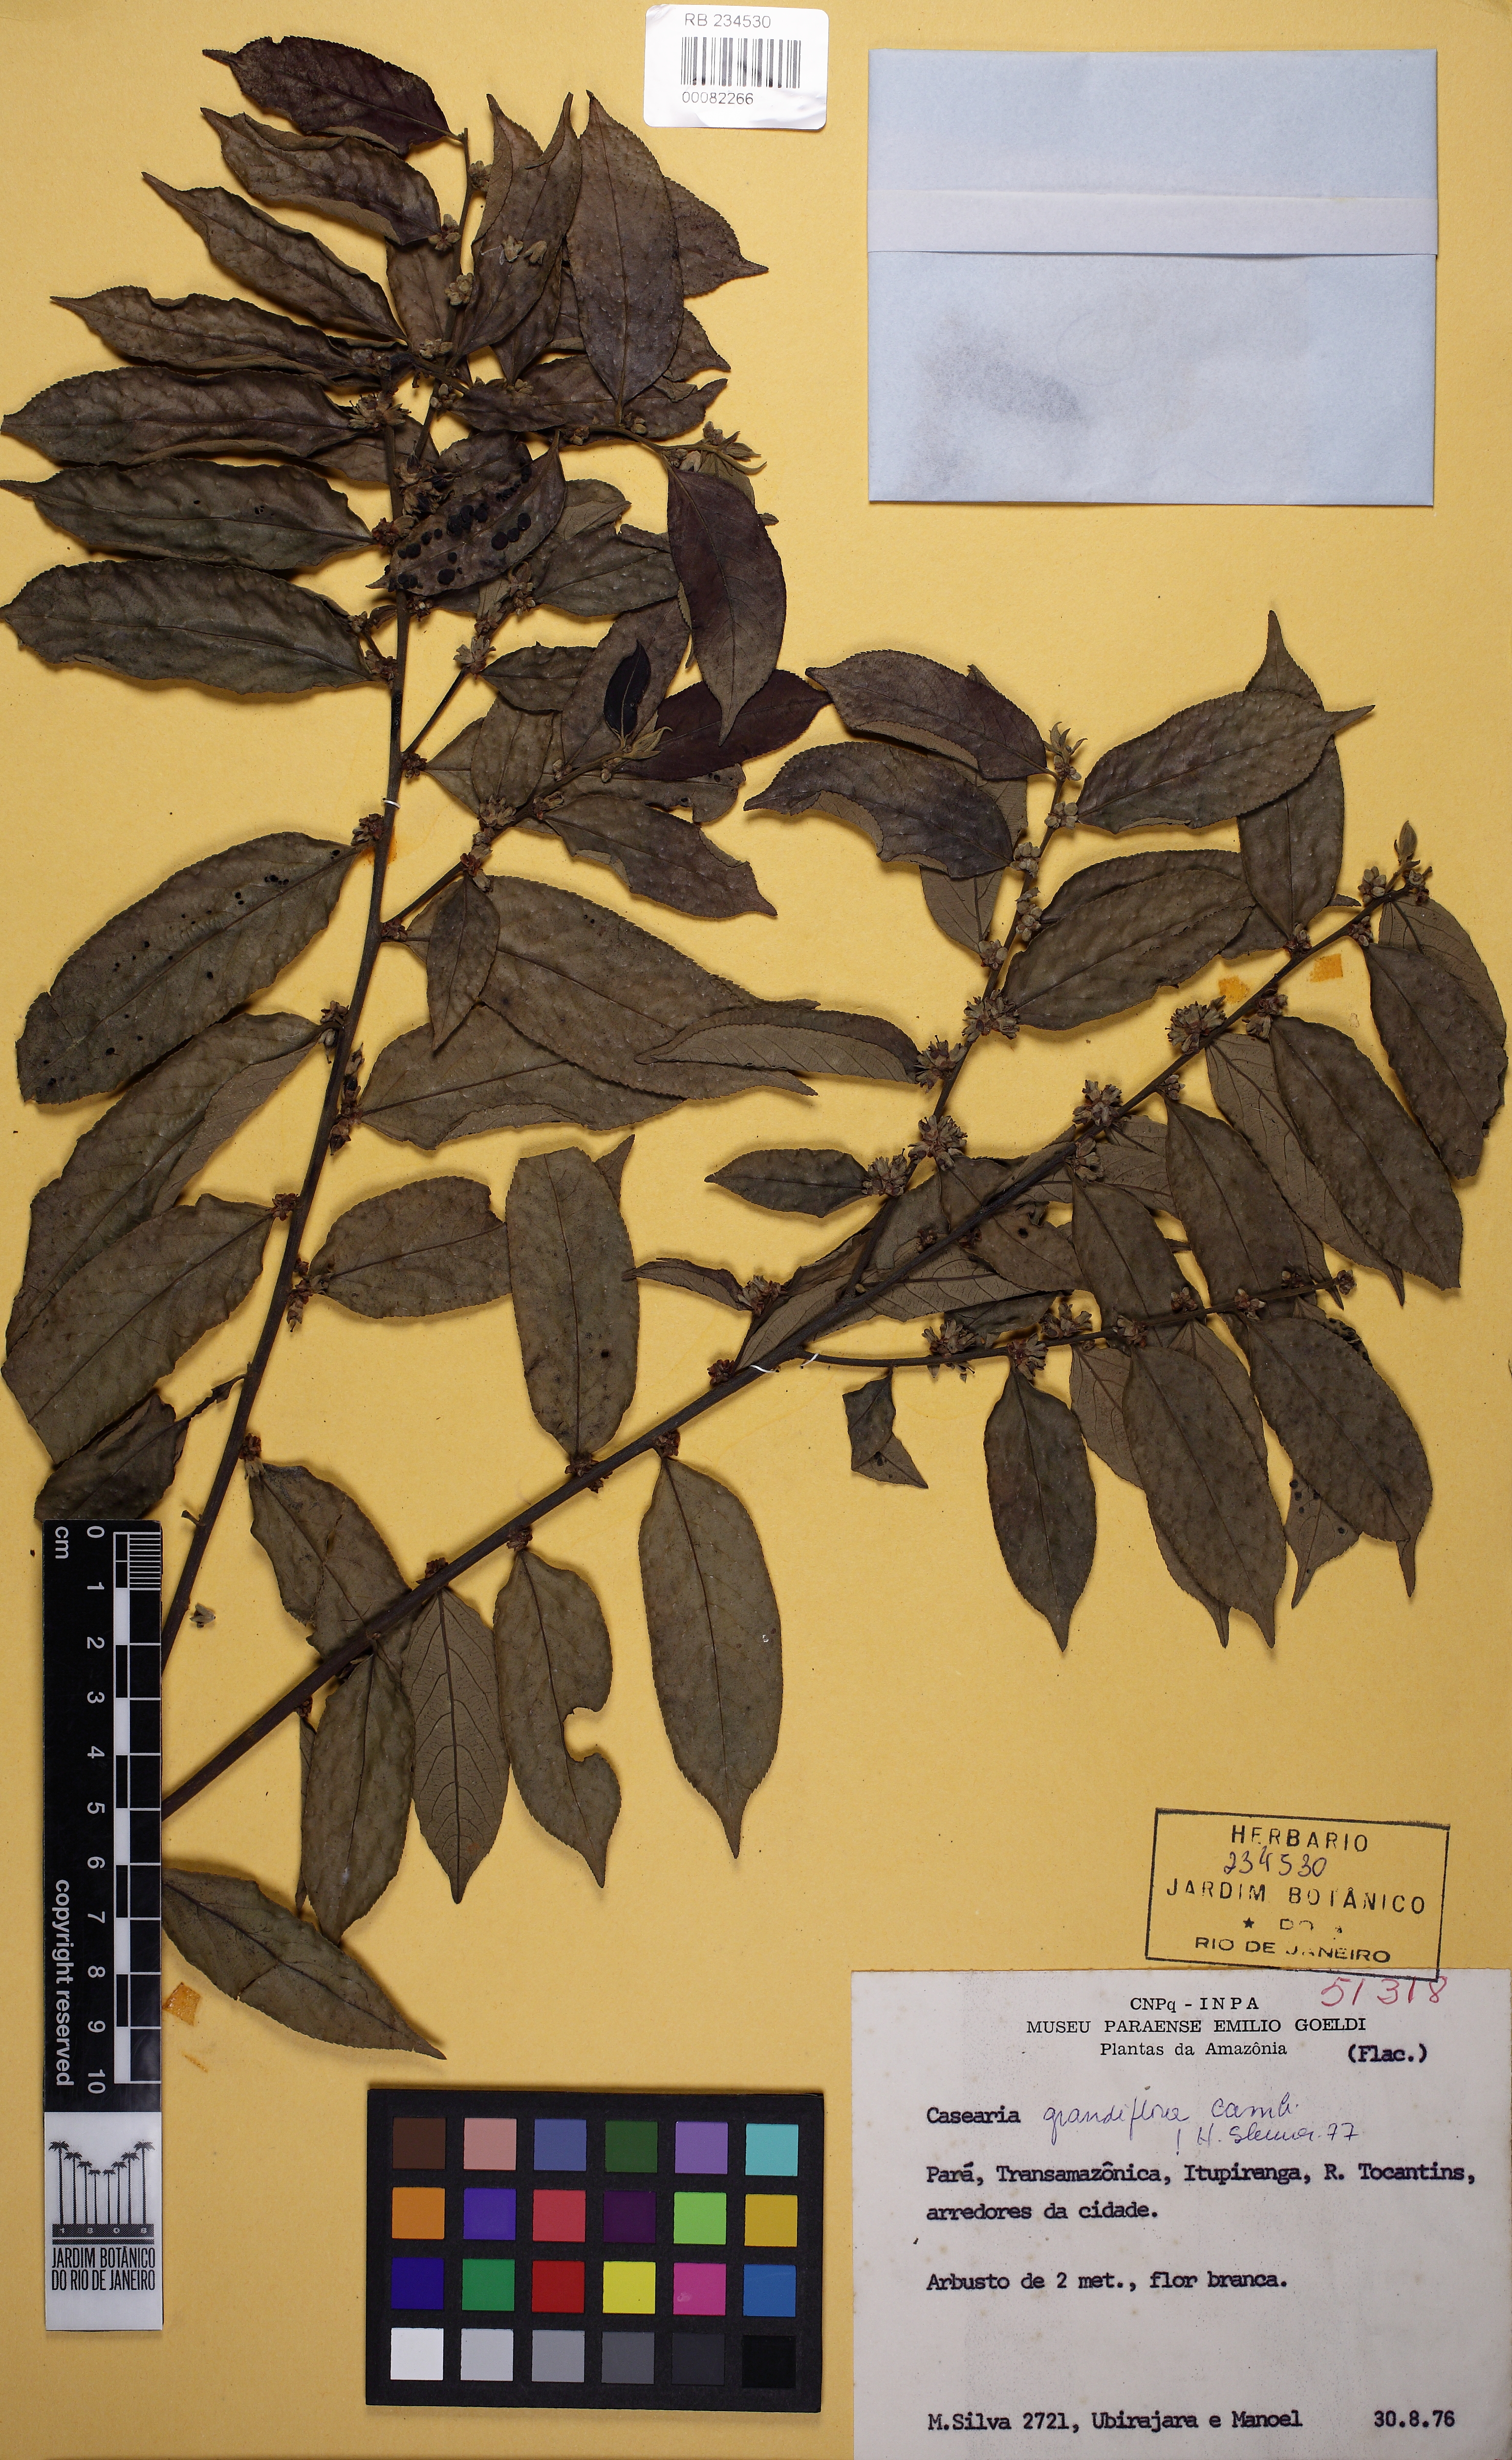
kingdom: Plantae
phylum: Tracheophyta
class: Magnoliopsida
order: Malpighiales
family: Salicaceae
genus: Casearia
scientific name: Casearia grandiflora
